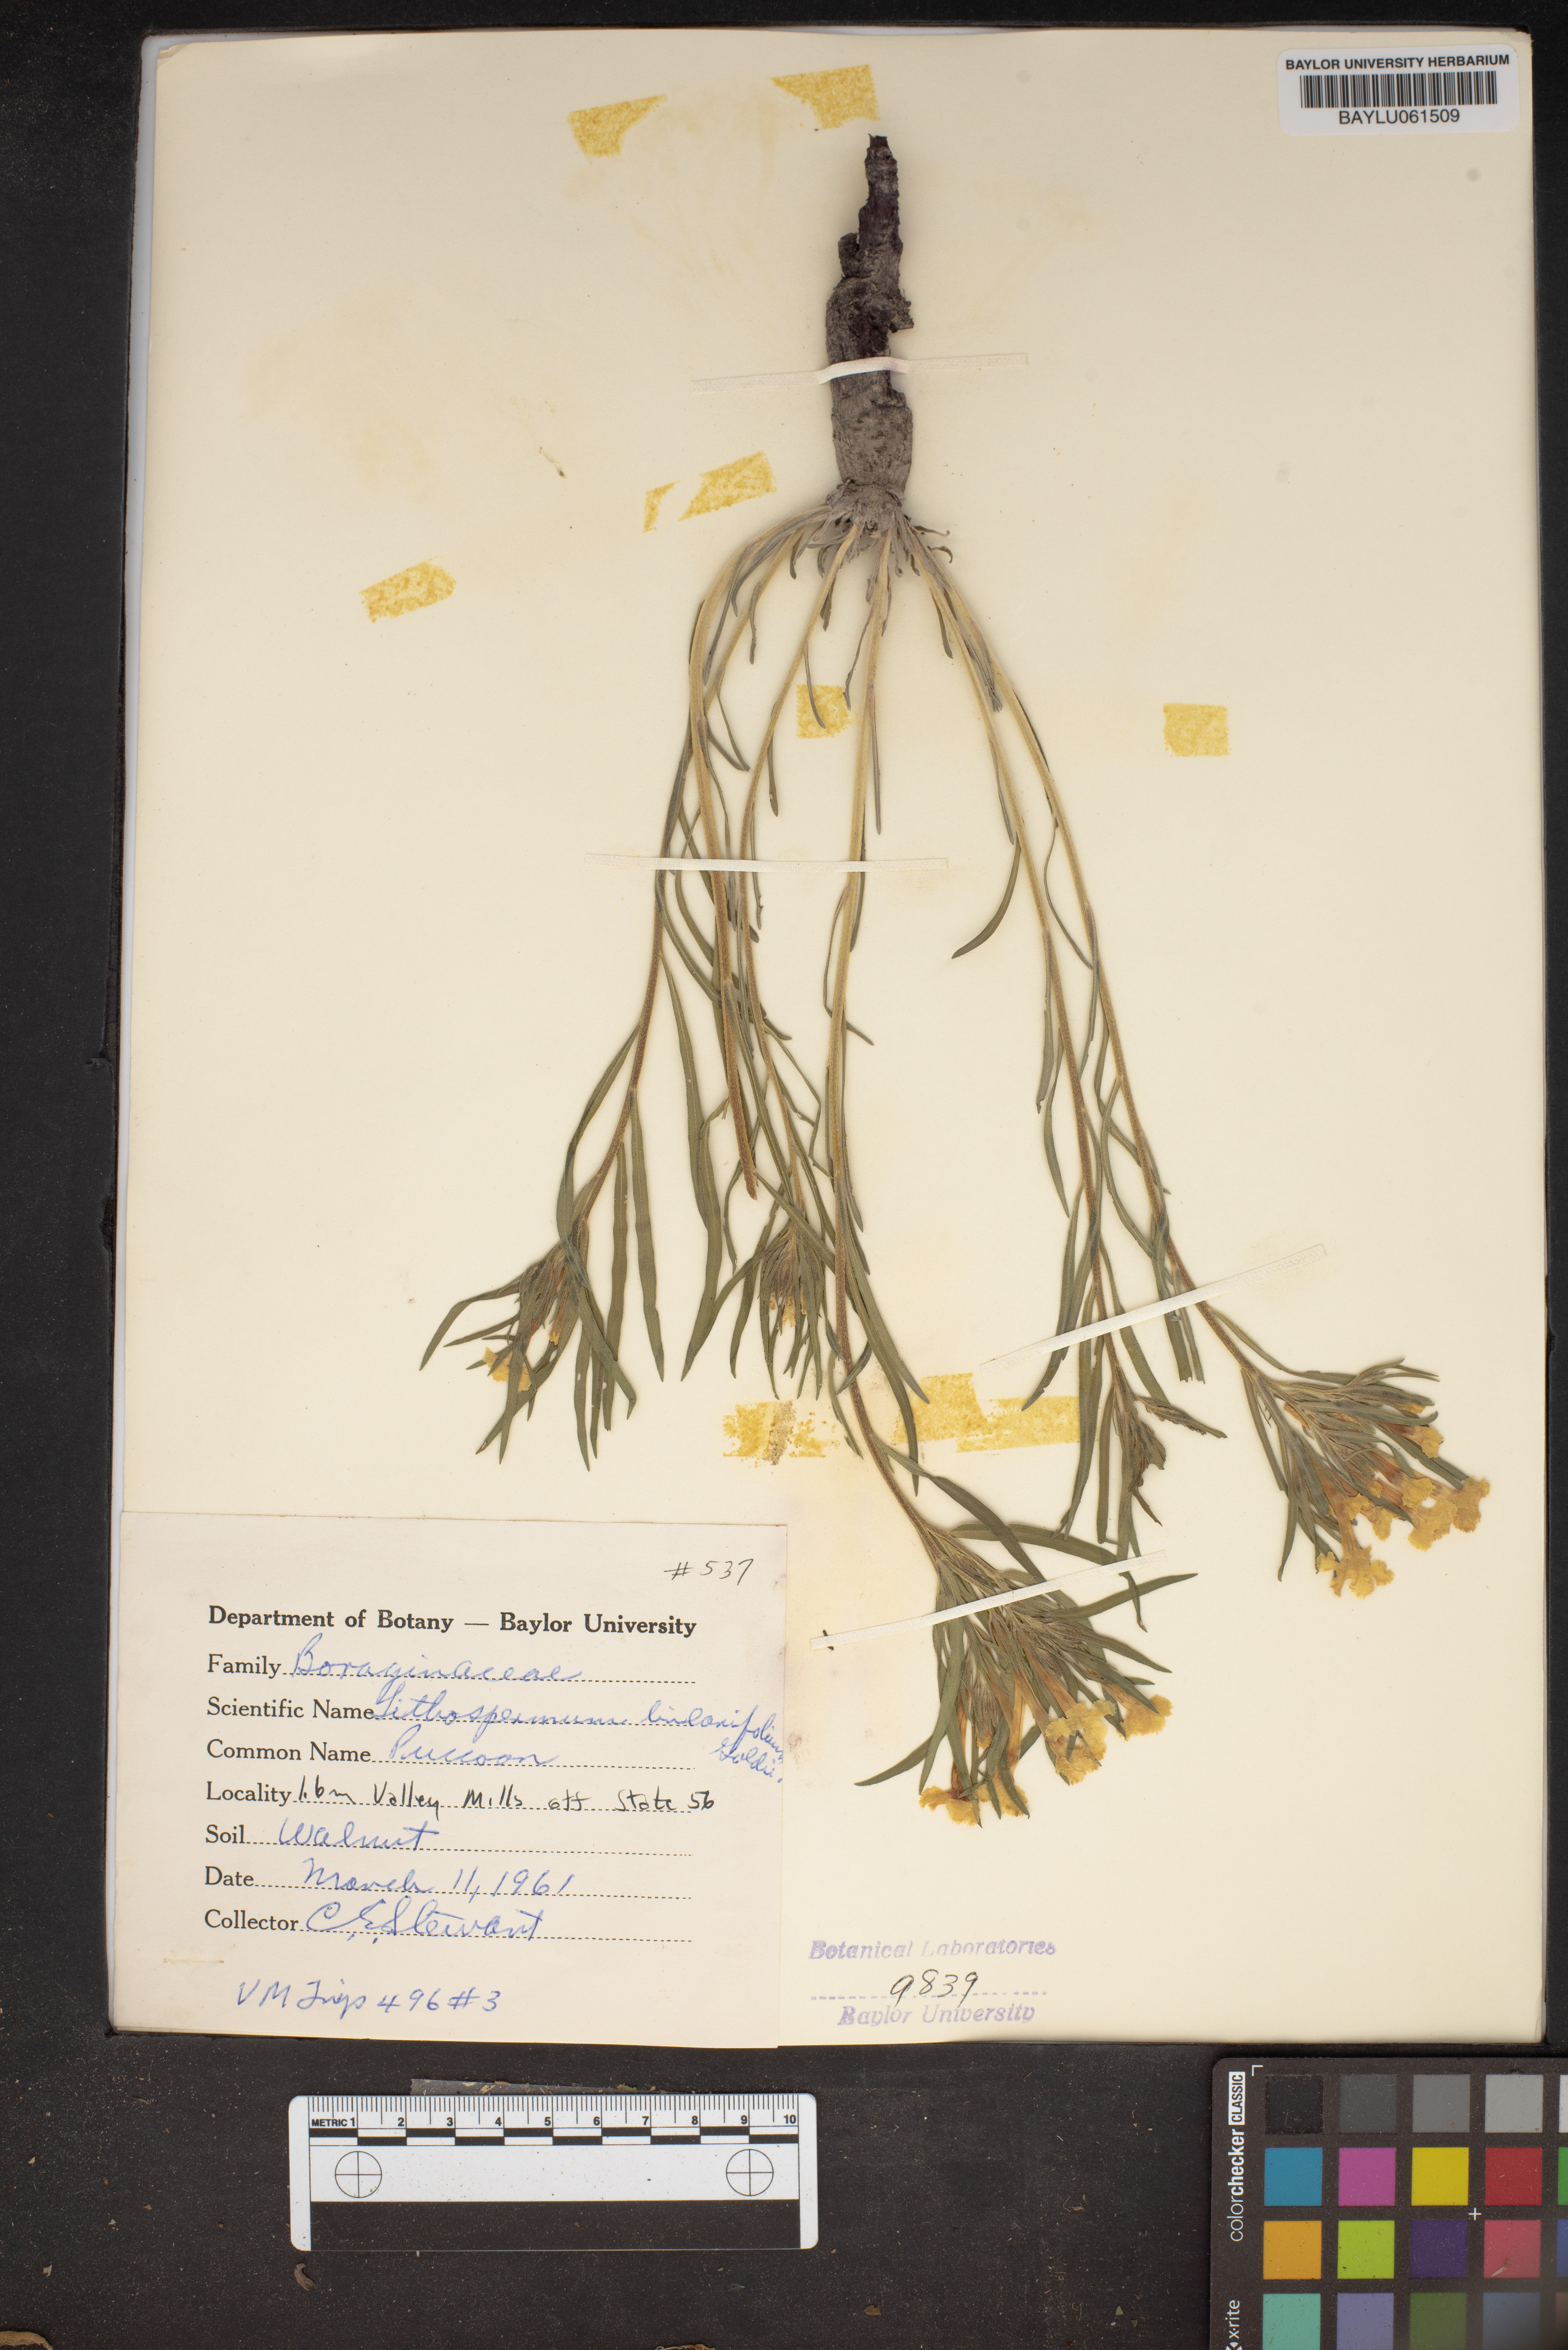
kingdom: Plantae
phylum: Tracheophyta
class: Magnoliopsida
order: Boraginales
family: Boraginaceae
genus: Lithospermum
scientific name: Lithospermum incisum
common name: Fringed gromwell
